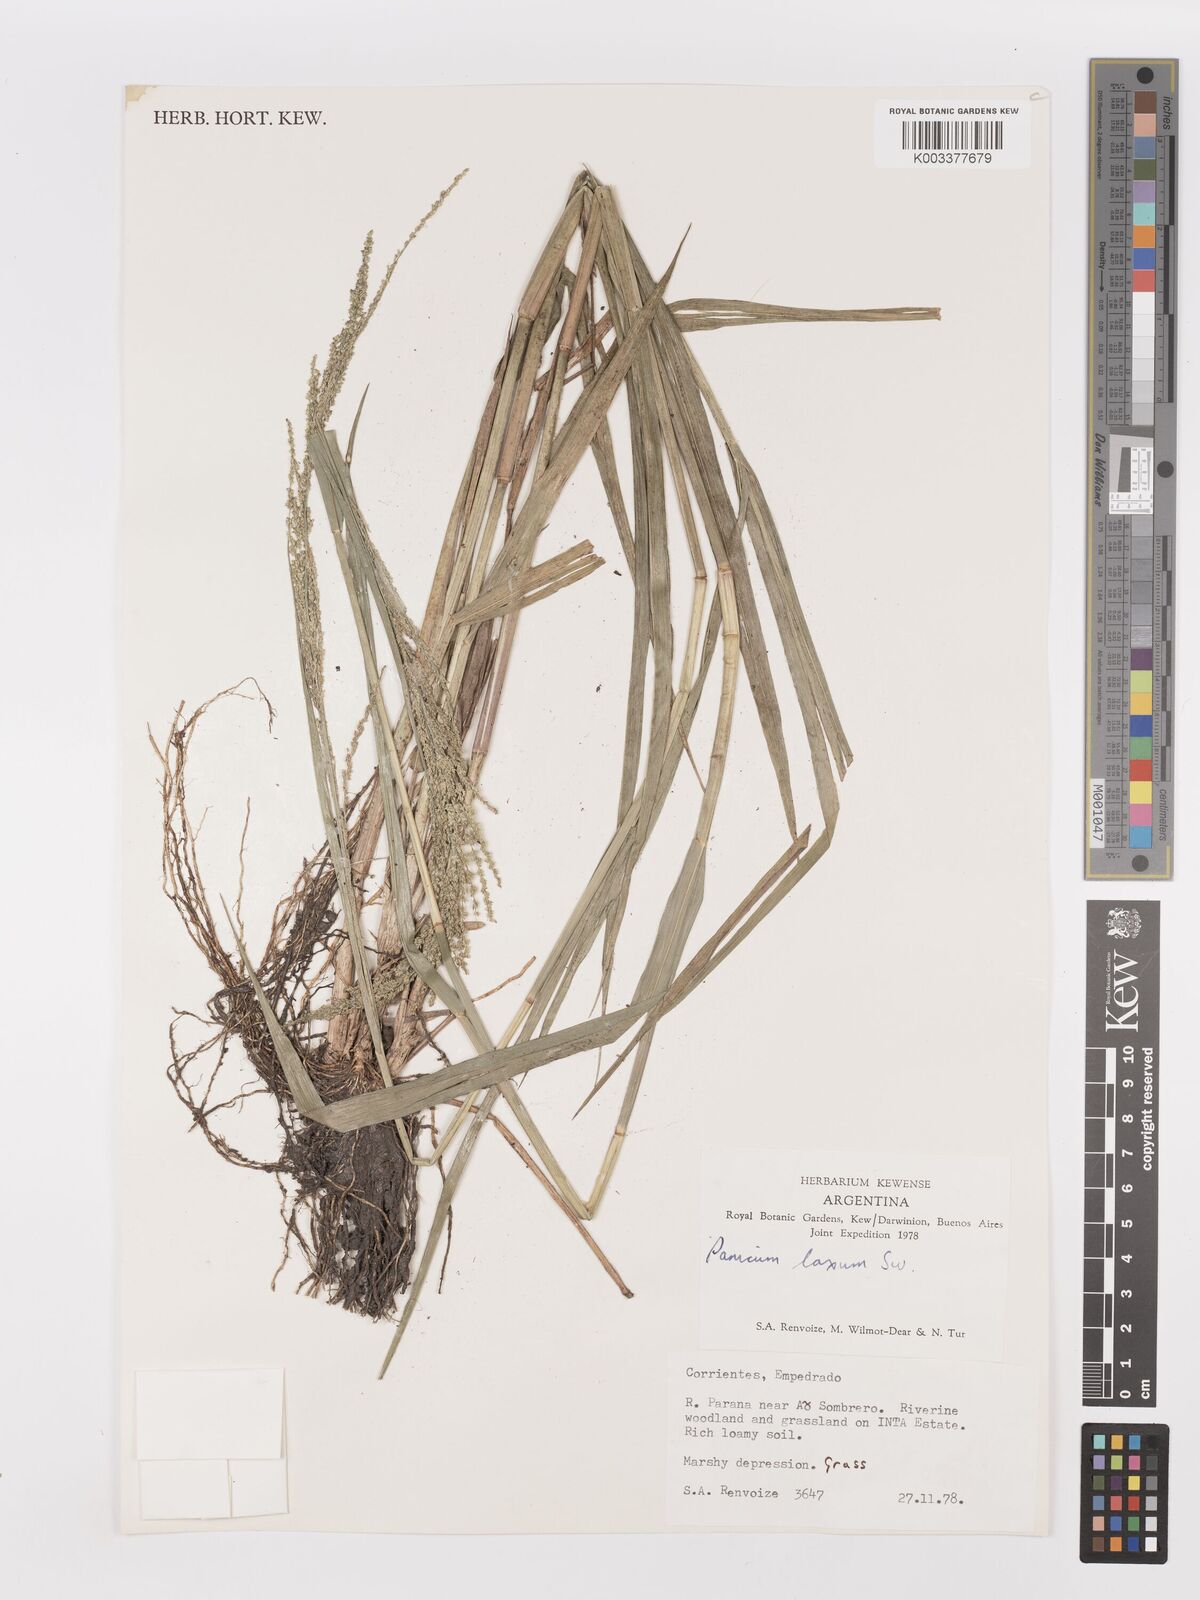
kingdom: Plantae
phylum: Tracheophyta
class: Liliopsida
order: Poales
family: Poaceae
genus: Steinchisma
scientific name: Steinchisma laxum
